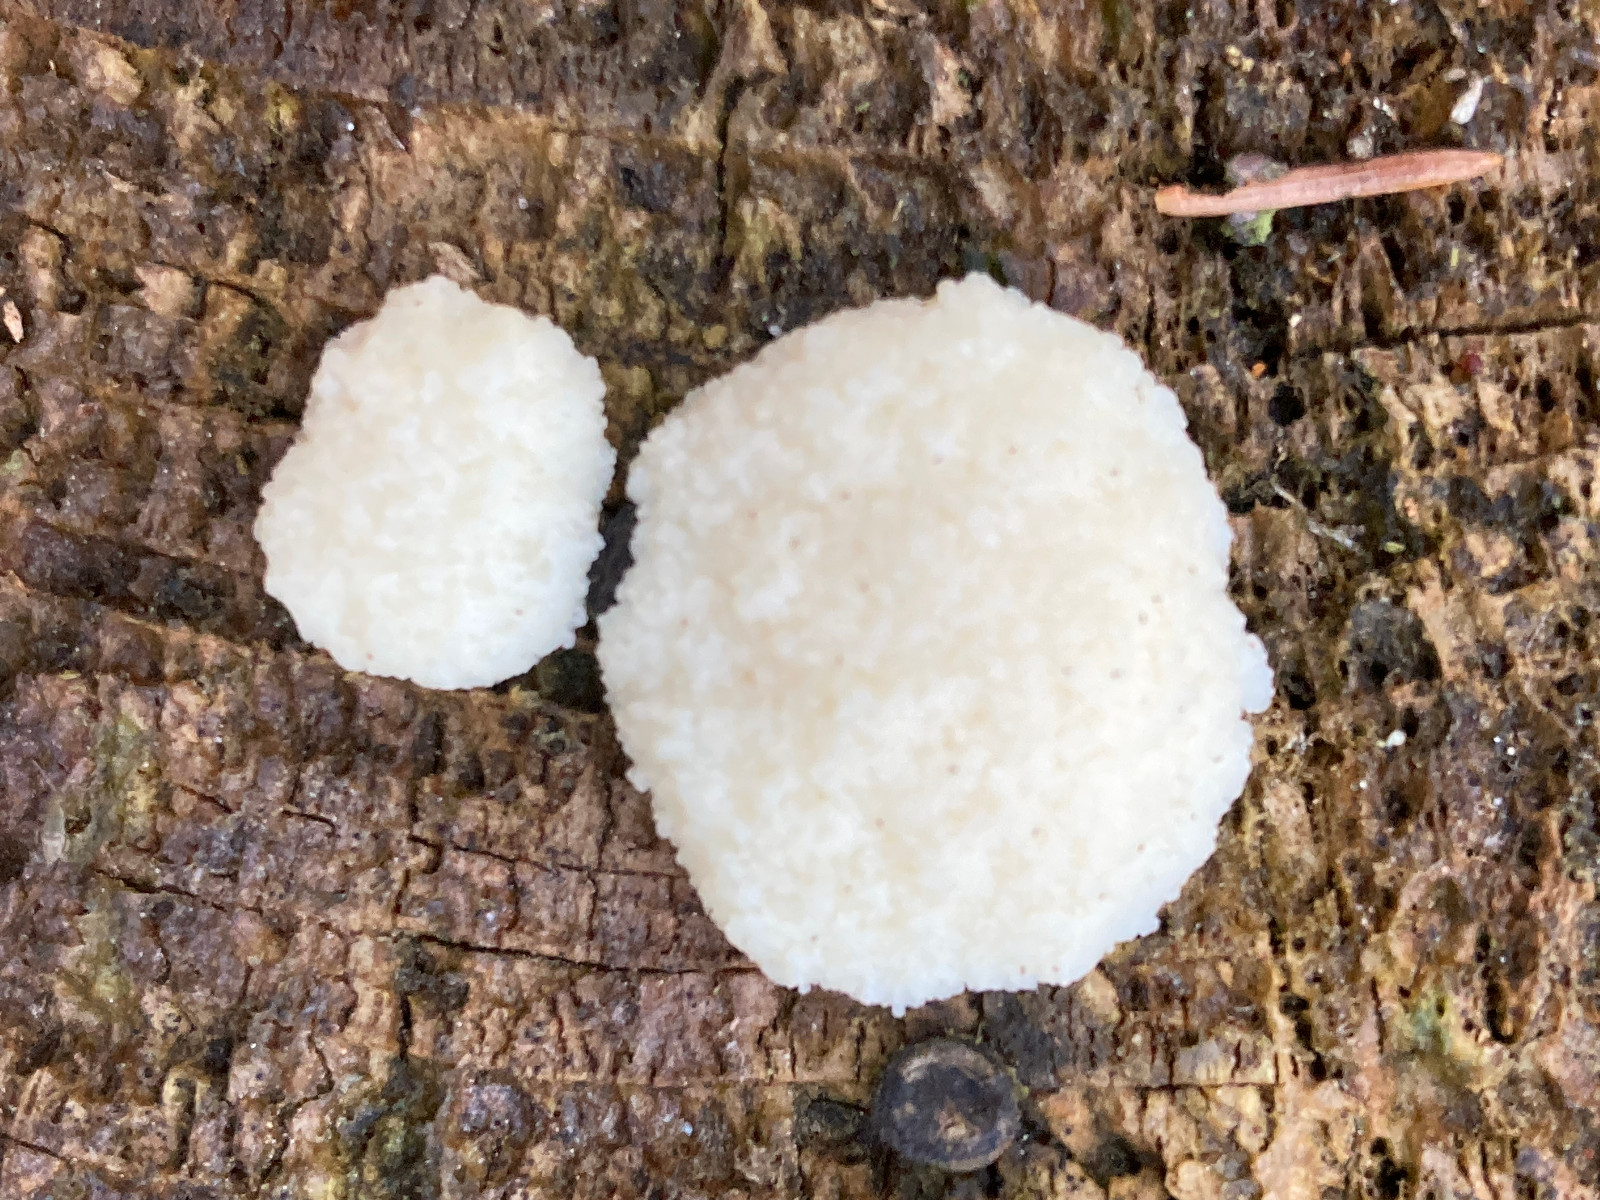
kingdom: Protozoa
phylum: Mycetozoa
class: Myxomycetes
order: Cribrariales
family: Tubiferaceae
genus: Reticularia
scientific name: Reticularia lycoperdon
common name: skinnende støvpude
